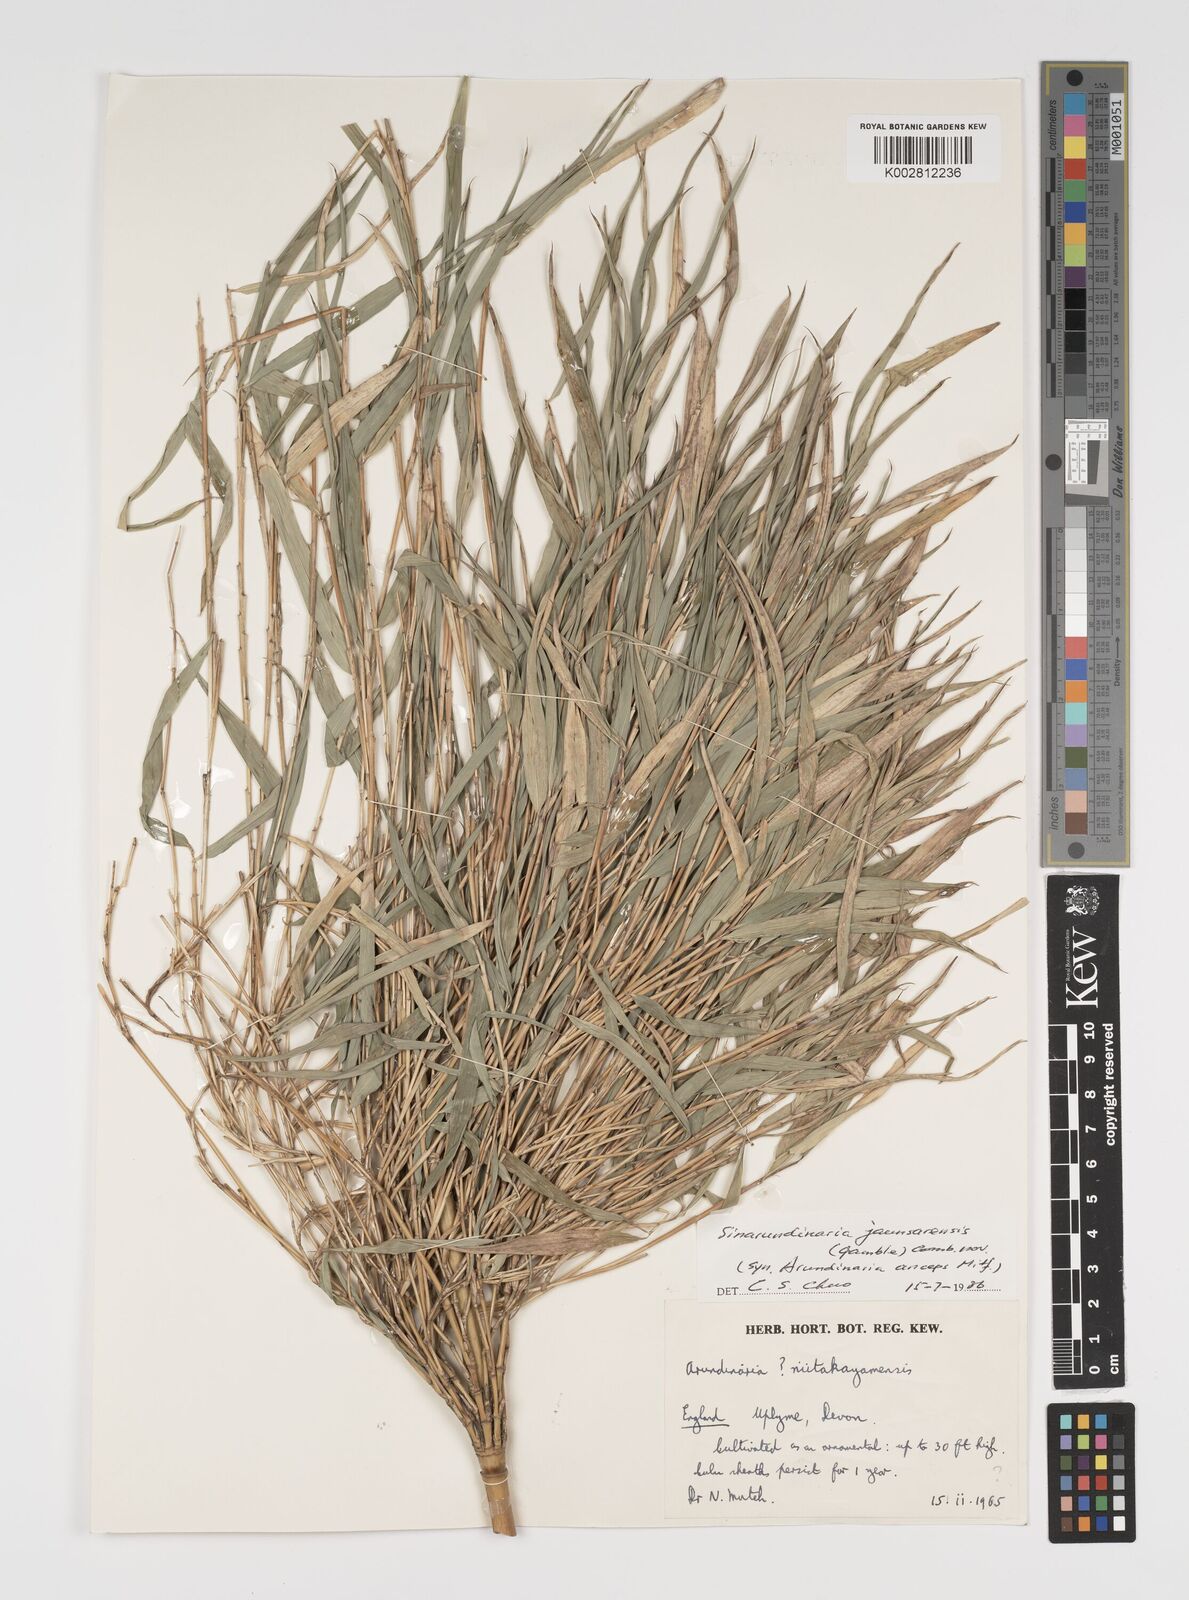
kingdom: Plantae
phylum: Tracheophyta
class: Liliopsida
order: Poales
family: Poaceae
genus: Yushania
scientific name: Yushania anceps
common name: Indian fountain-bamboo
